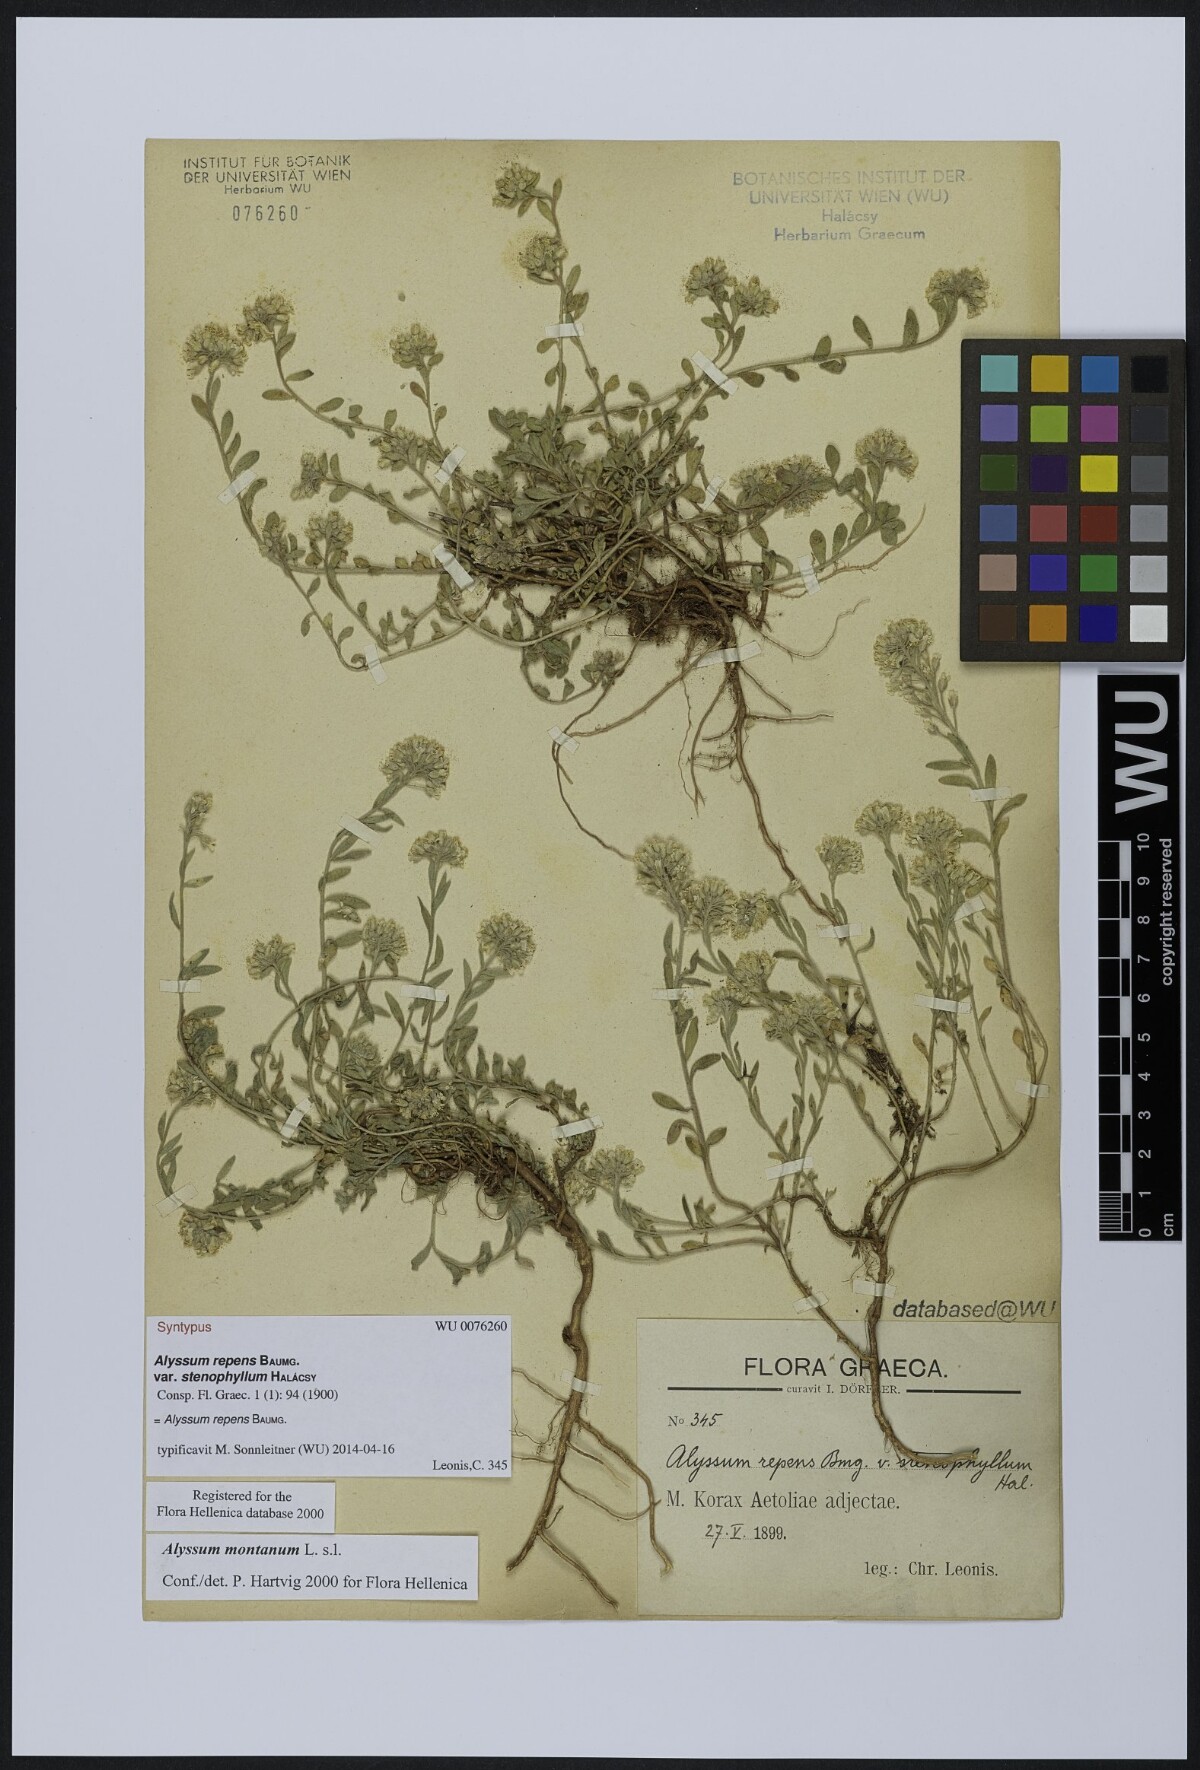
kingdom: Plantae
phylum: Tracheophyta
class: Magnoliopsida
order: Brassicales
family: Brassicaceae
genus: Alyssum
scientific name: Alyssum trichostachyum
